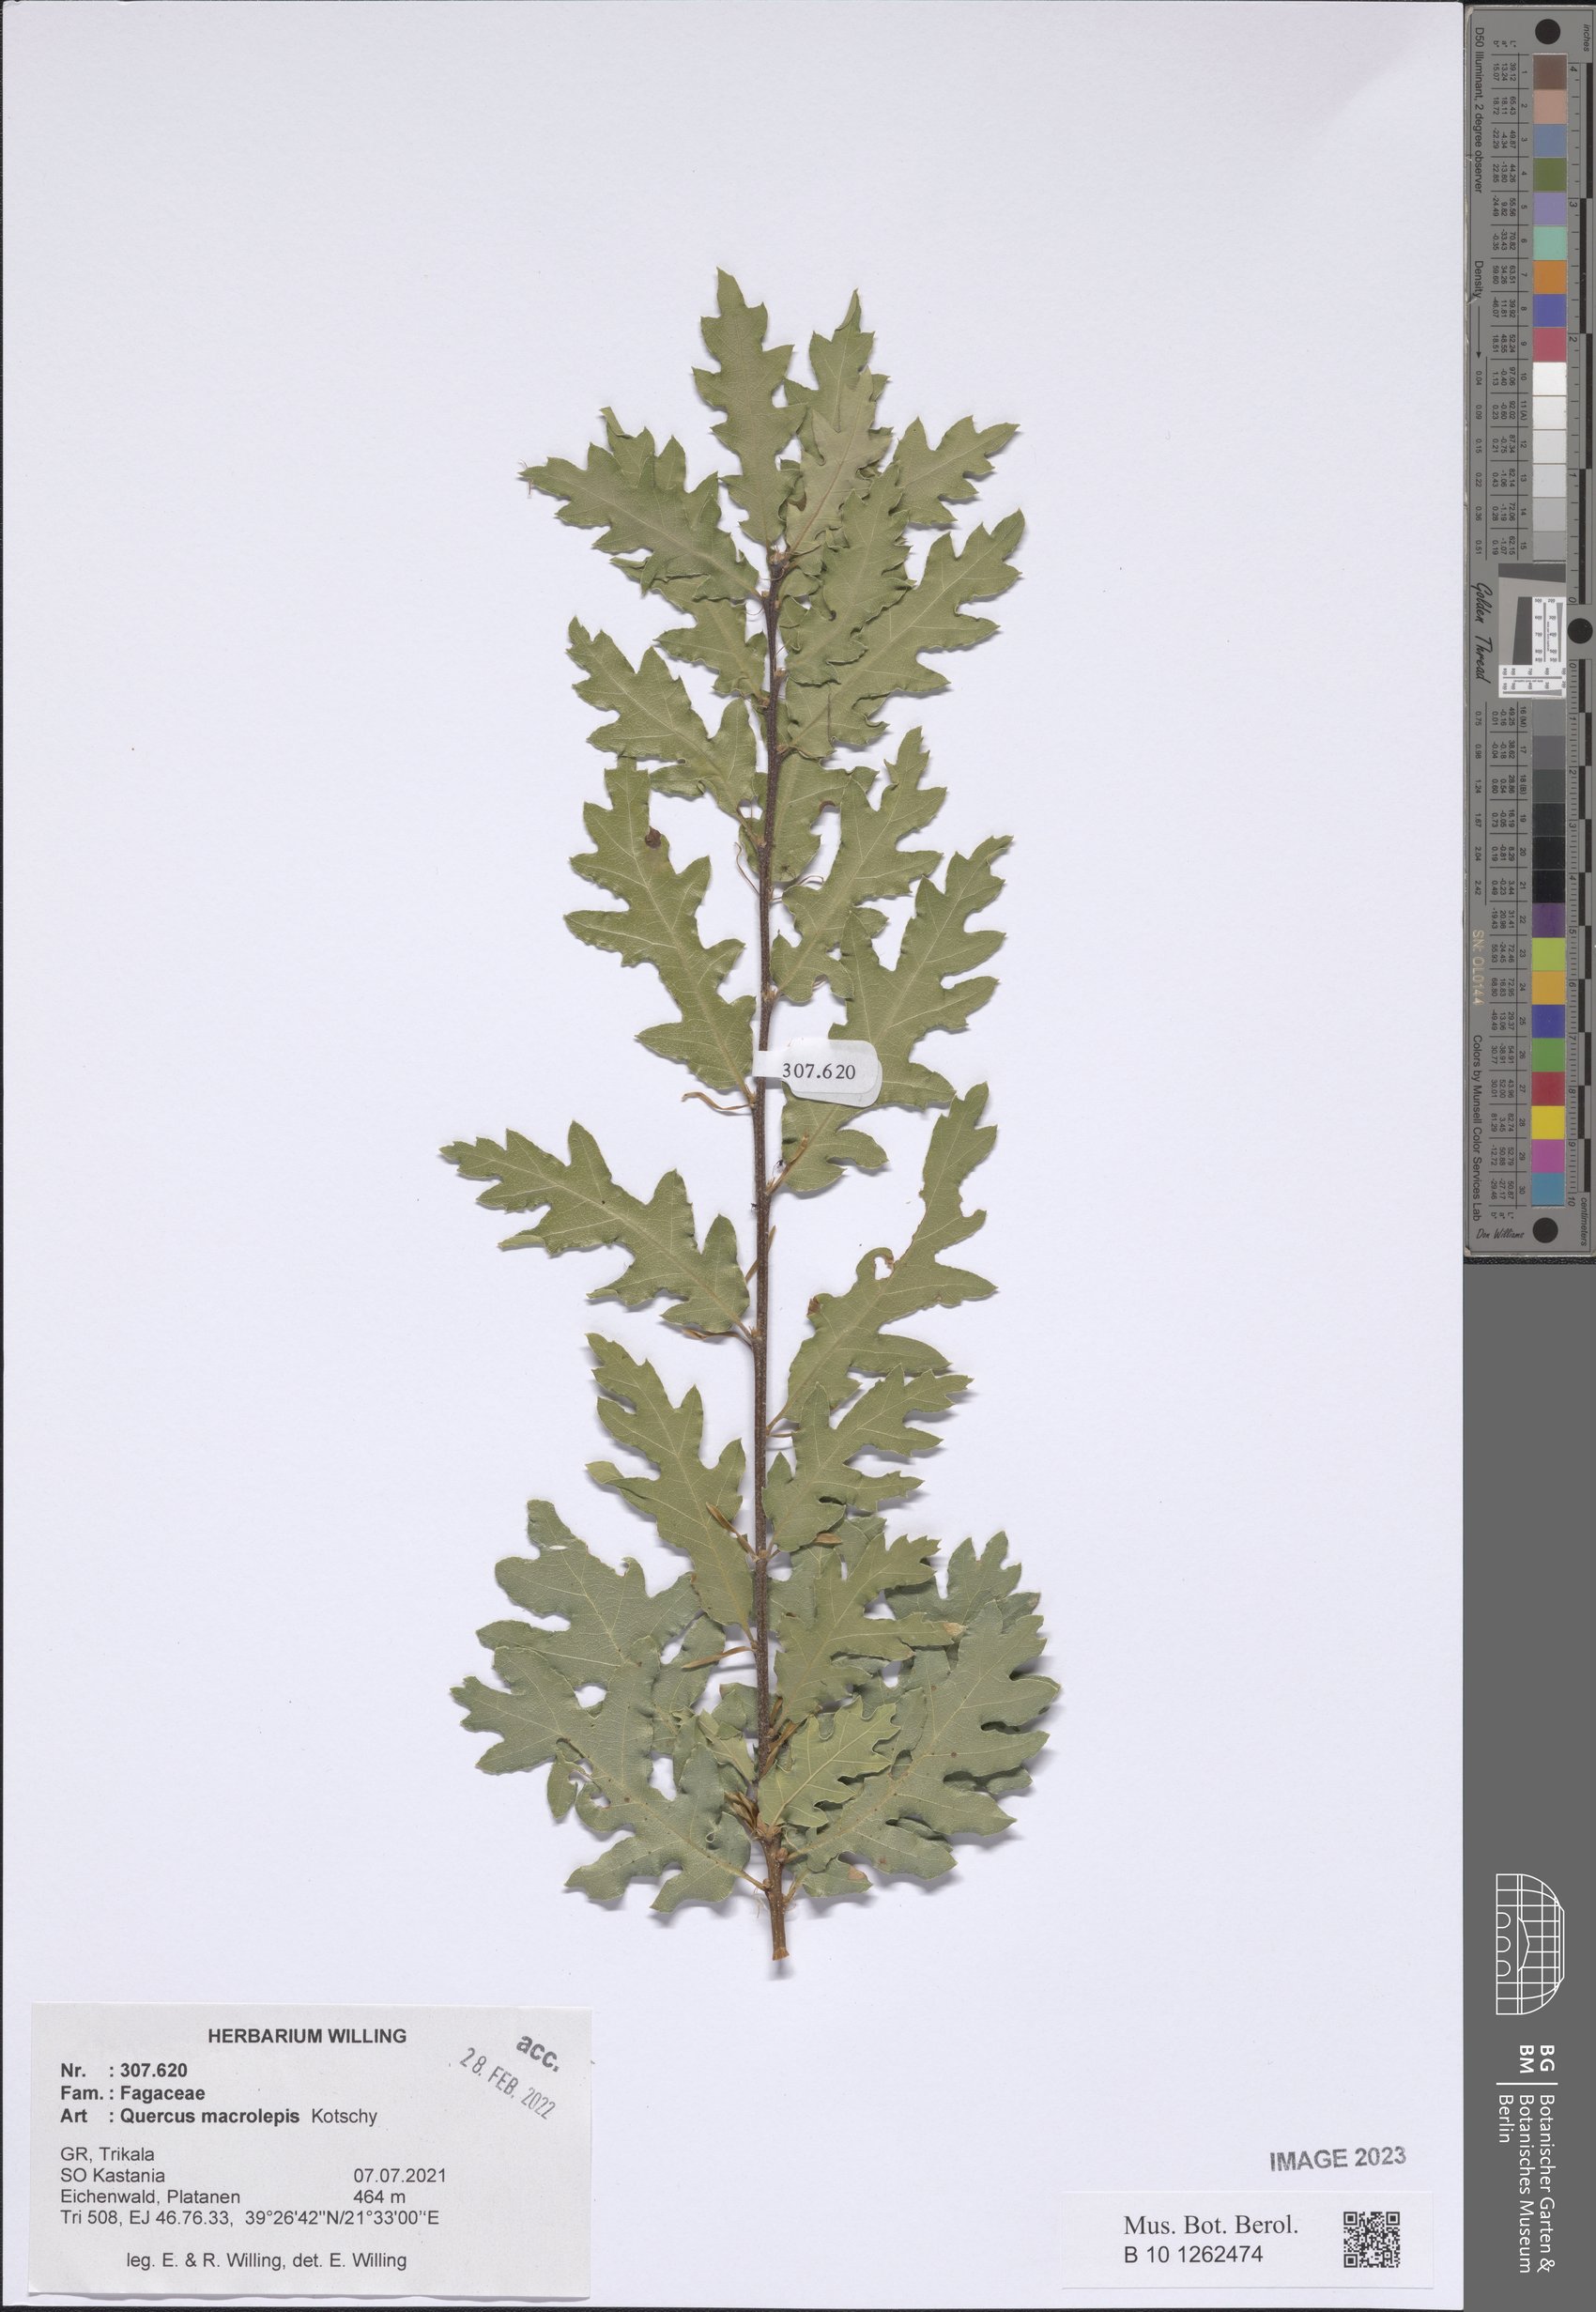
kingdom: Plantae
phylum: Tracheophyta
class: Magnoliopsida
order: Fagales
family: Fagaceae
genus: Quercus
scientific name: Quercus ithaburensis
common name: Tabor oak
